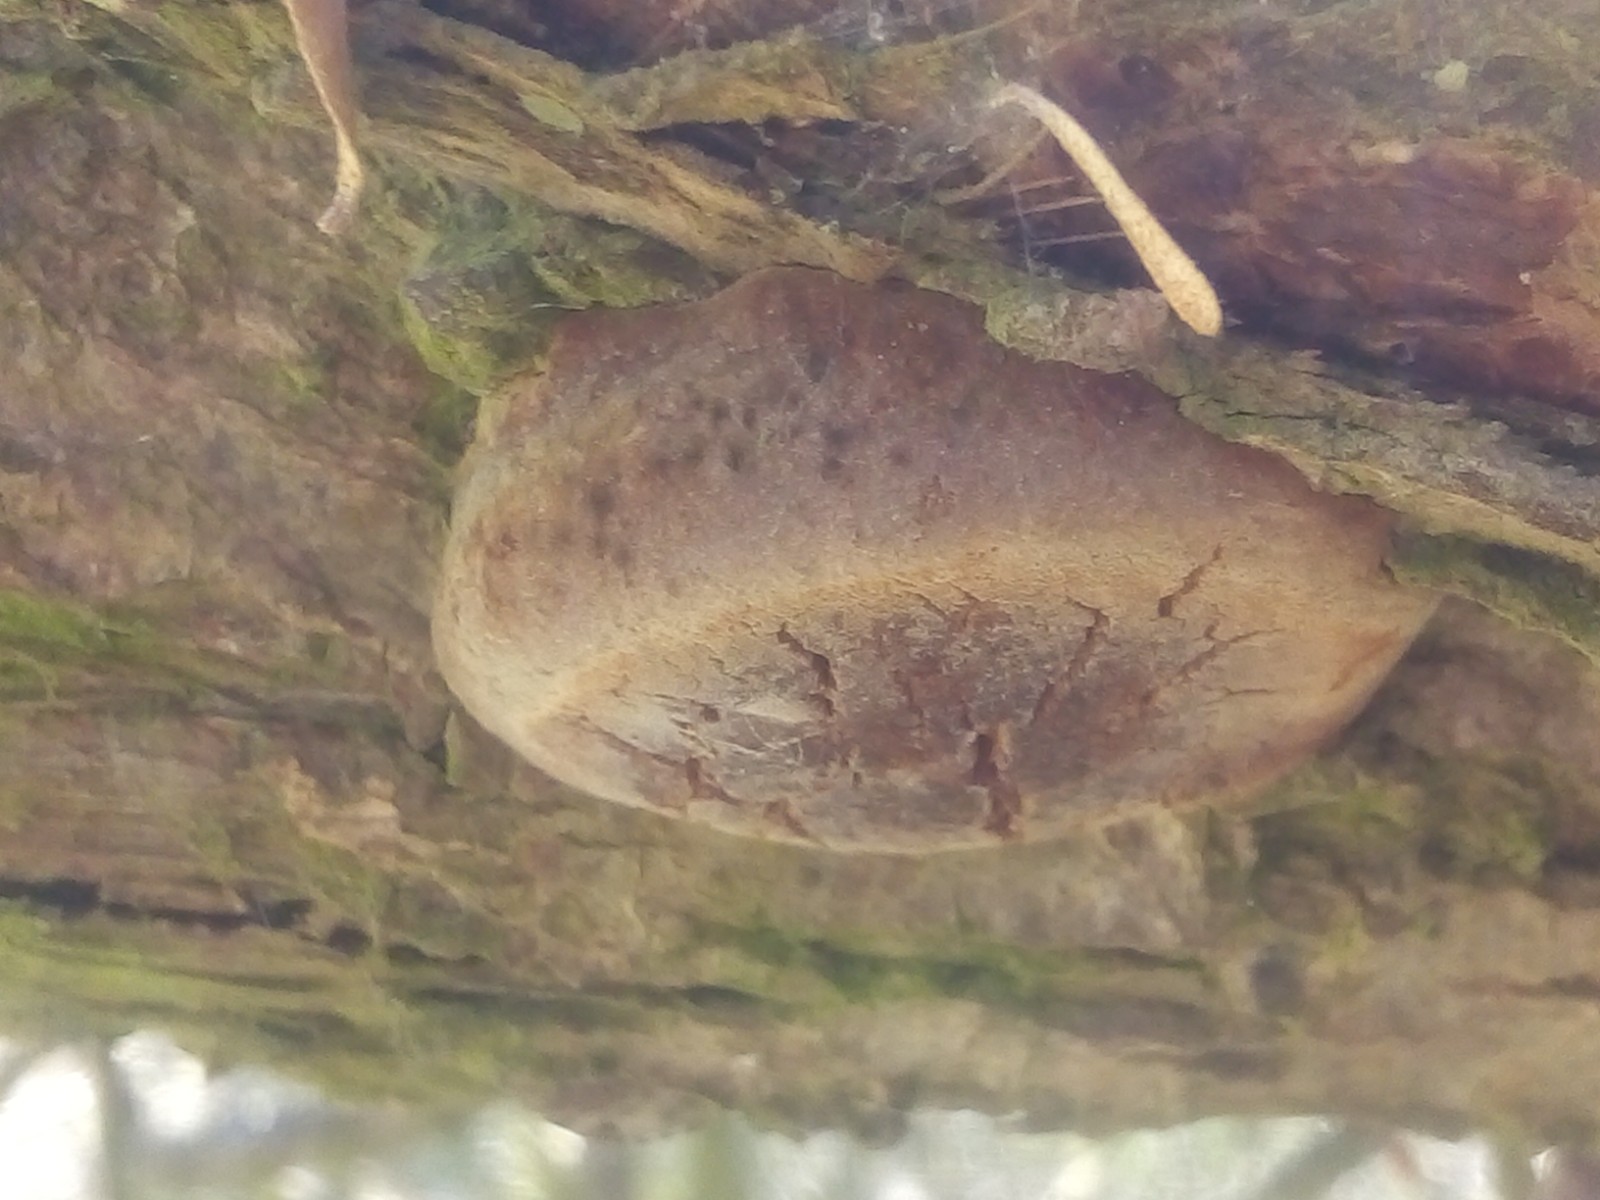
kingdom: Fungi
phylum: Basidiomycota
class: Agaricomycetes
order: Hymenochaetales
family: Hymenochaetaceae
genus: Fomitiporia
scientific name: Fomitiporia hippophaeicola
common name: havtorn-ildporesvamp
